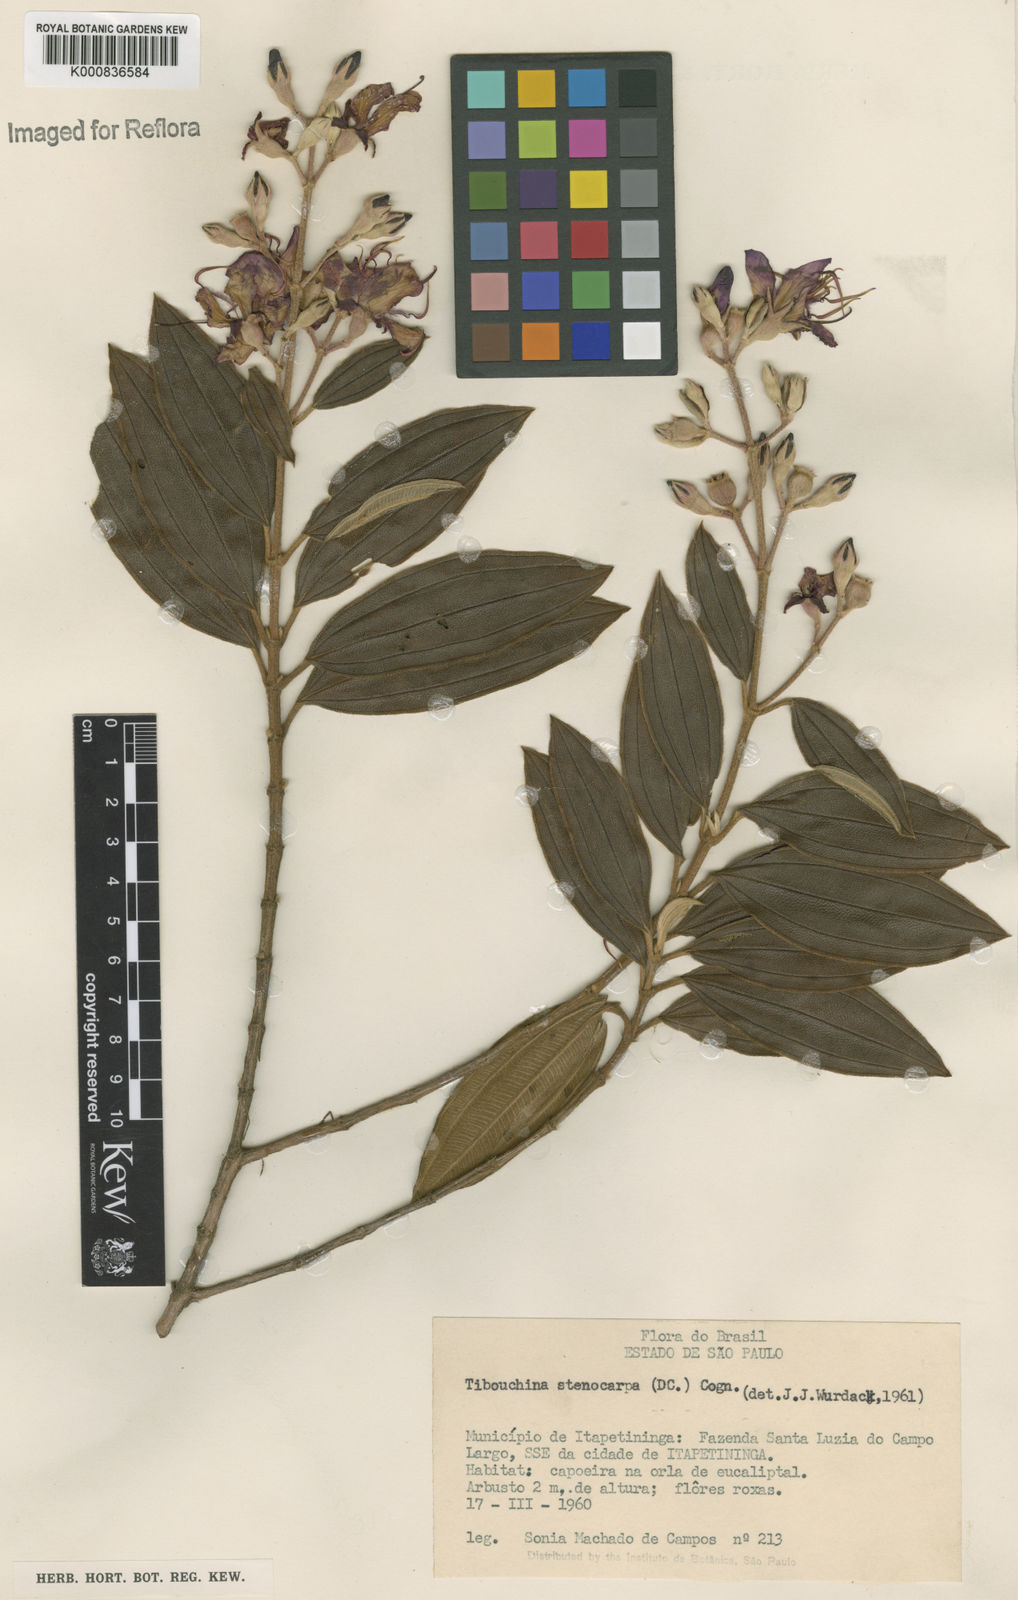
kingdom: Plantae
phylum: Tracheophyta
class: Magnoliopsida
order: Myrtales
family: Melastomataceae
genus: Pleroma
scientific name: Pleroma stenocarpum
